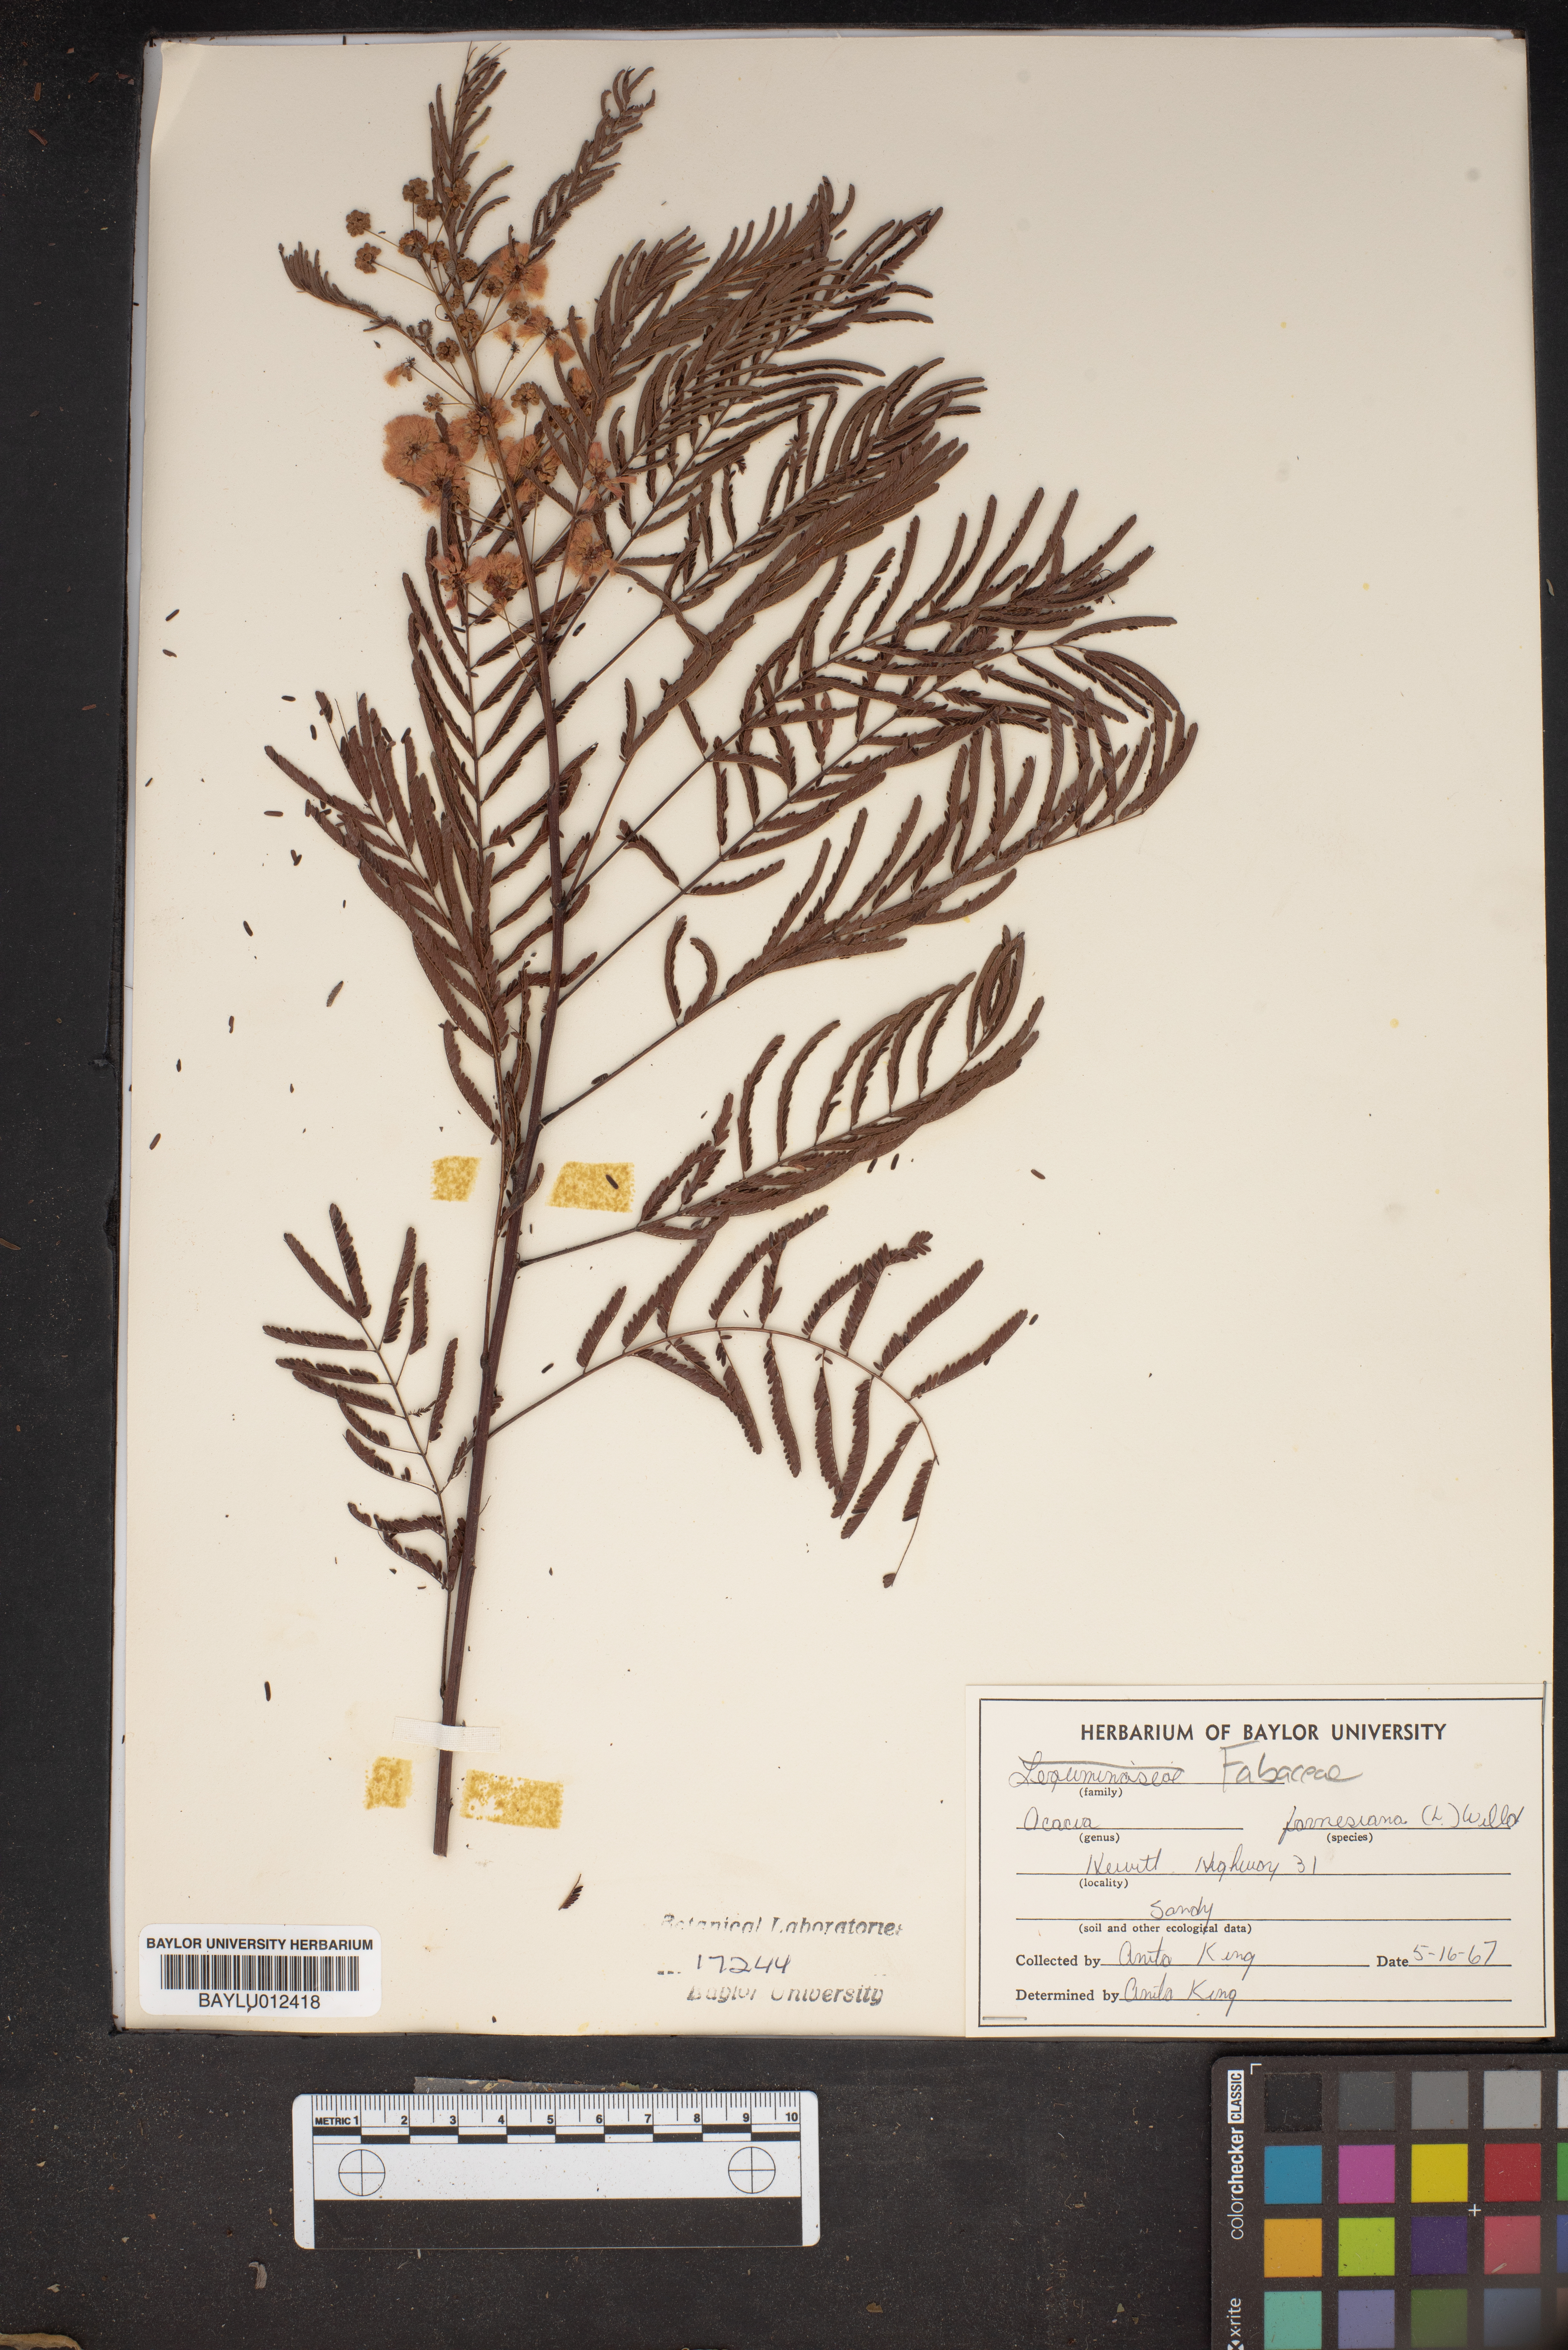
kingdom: Plantae
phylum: Tracheophyta
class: Magnoliopsida
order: Fabales
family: Fabaceae
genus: Vachellia
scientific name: Vachellia farnesiana
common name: Sweet acacia
